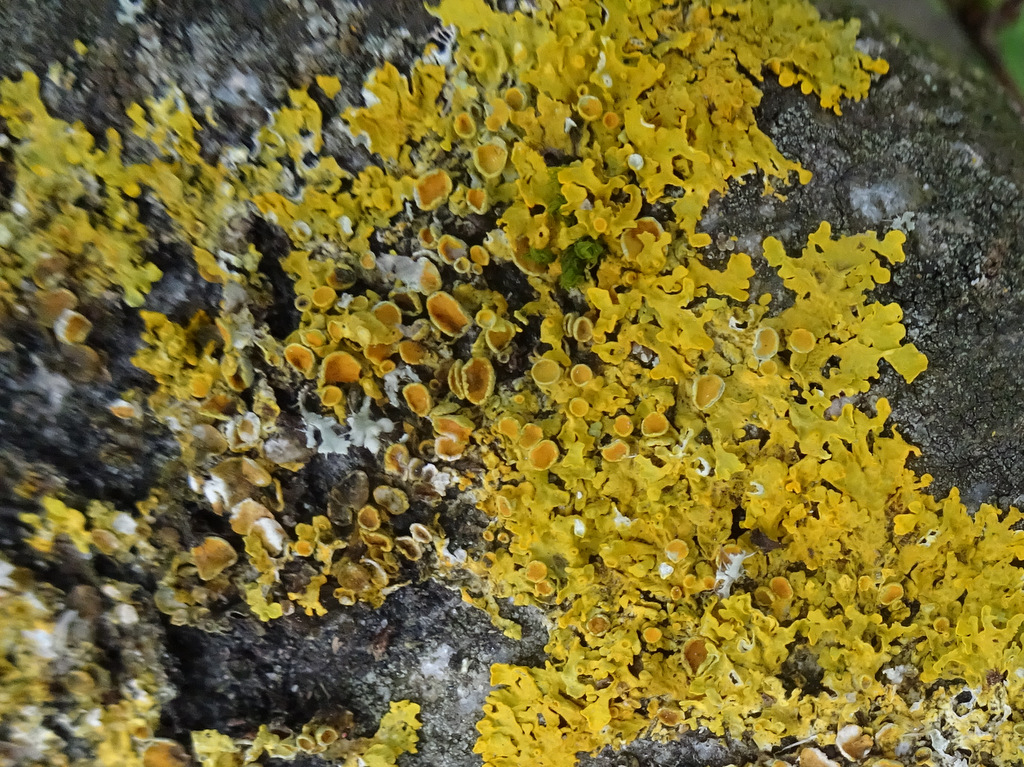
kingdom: Fungi
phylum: Ascomycota
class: Lecanoromycetes
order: Teloschistales
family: Teloschistaceae
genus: Xanthoria
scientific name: Xanthoria parietina
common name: almindelig væggelav
